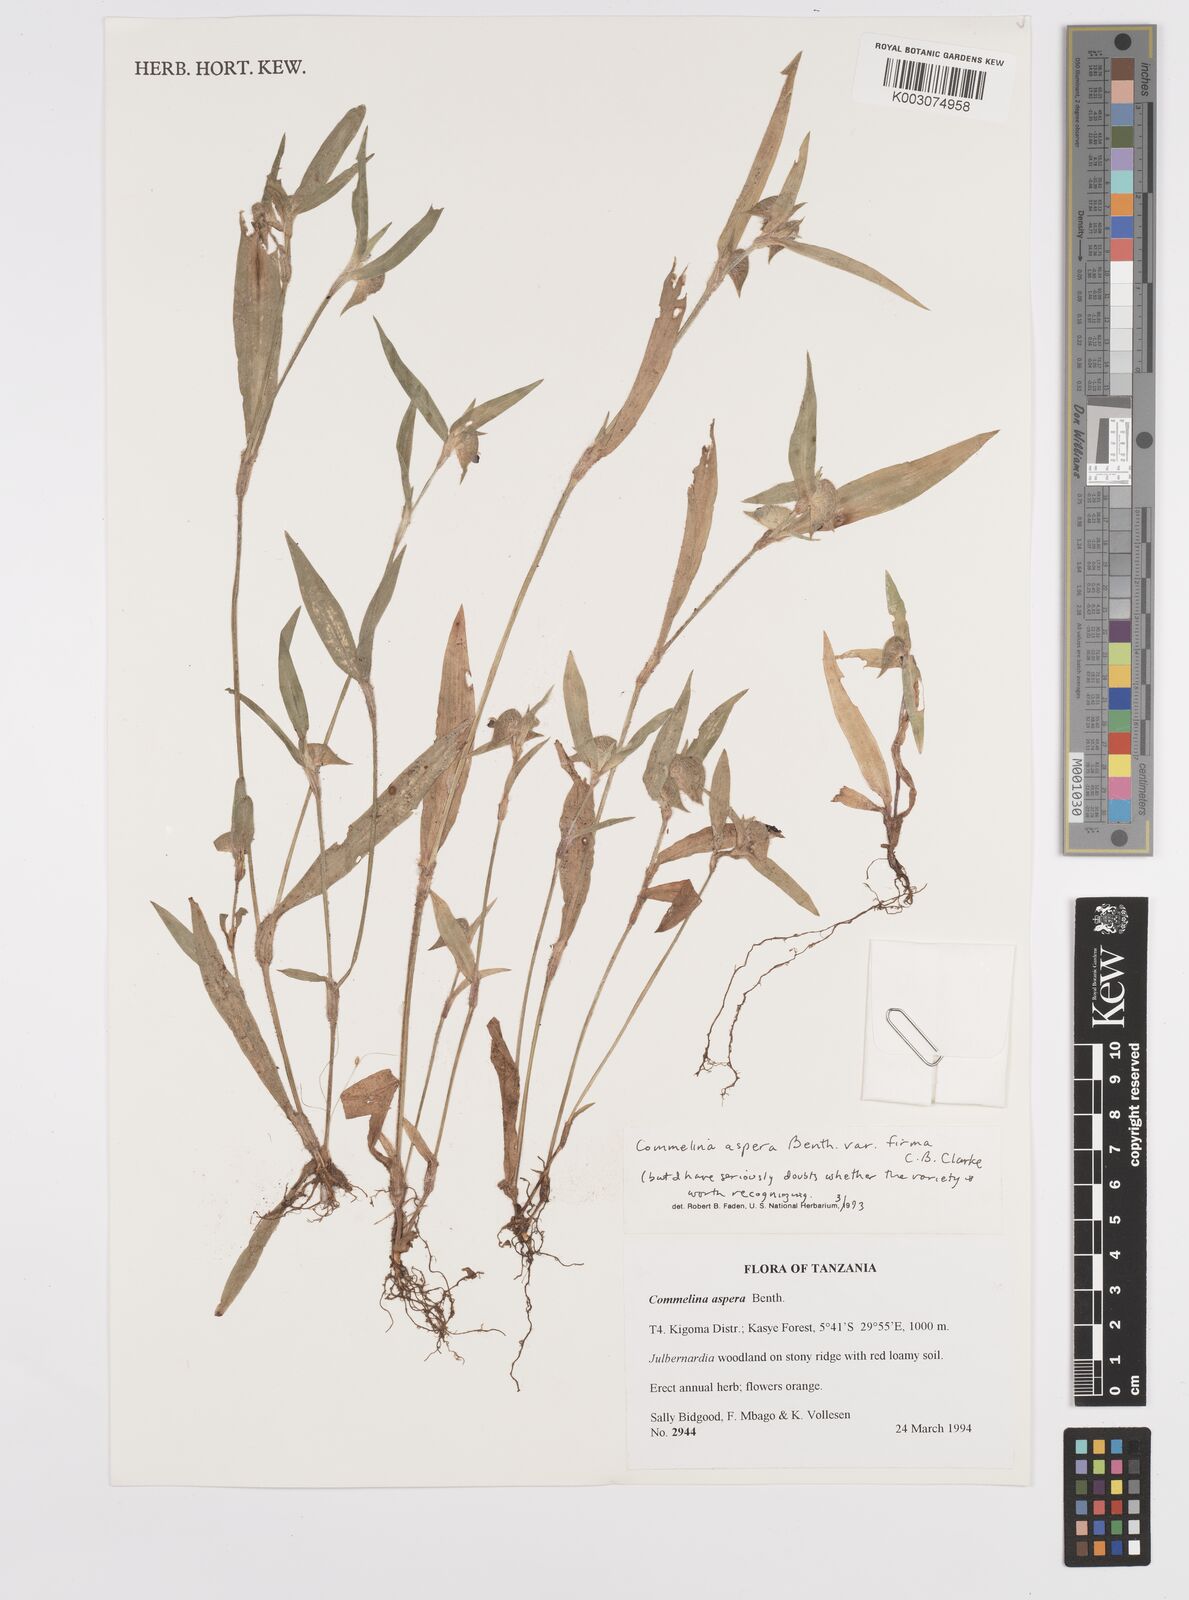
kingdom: Plantae
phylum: Tracheophyta
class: Liliopsida
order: Commelinales
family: Commelinaceae
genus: Commelina
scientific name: Commelina aspera
